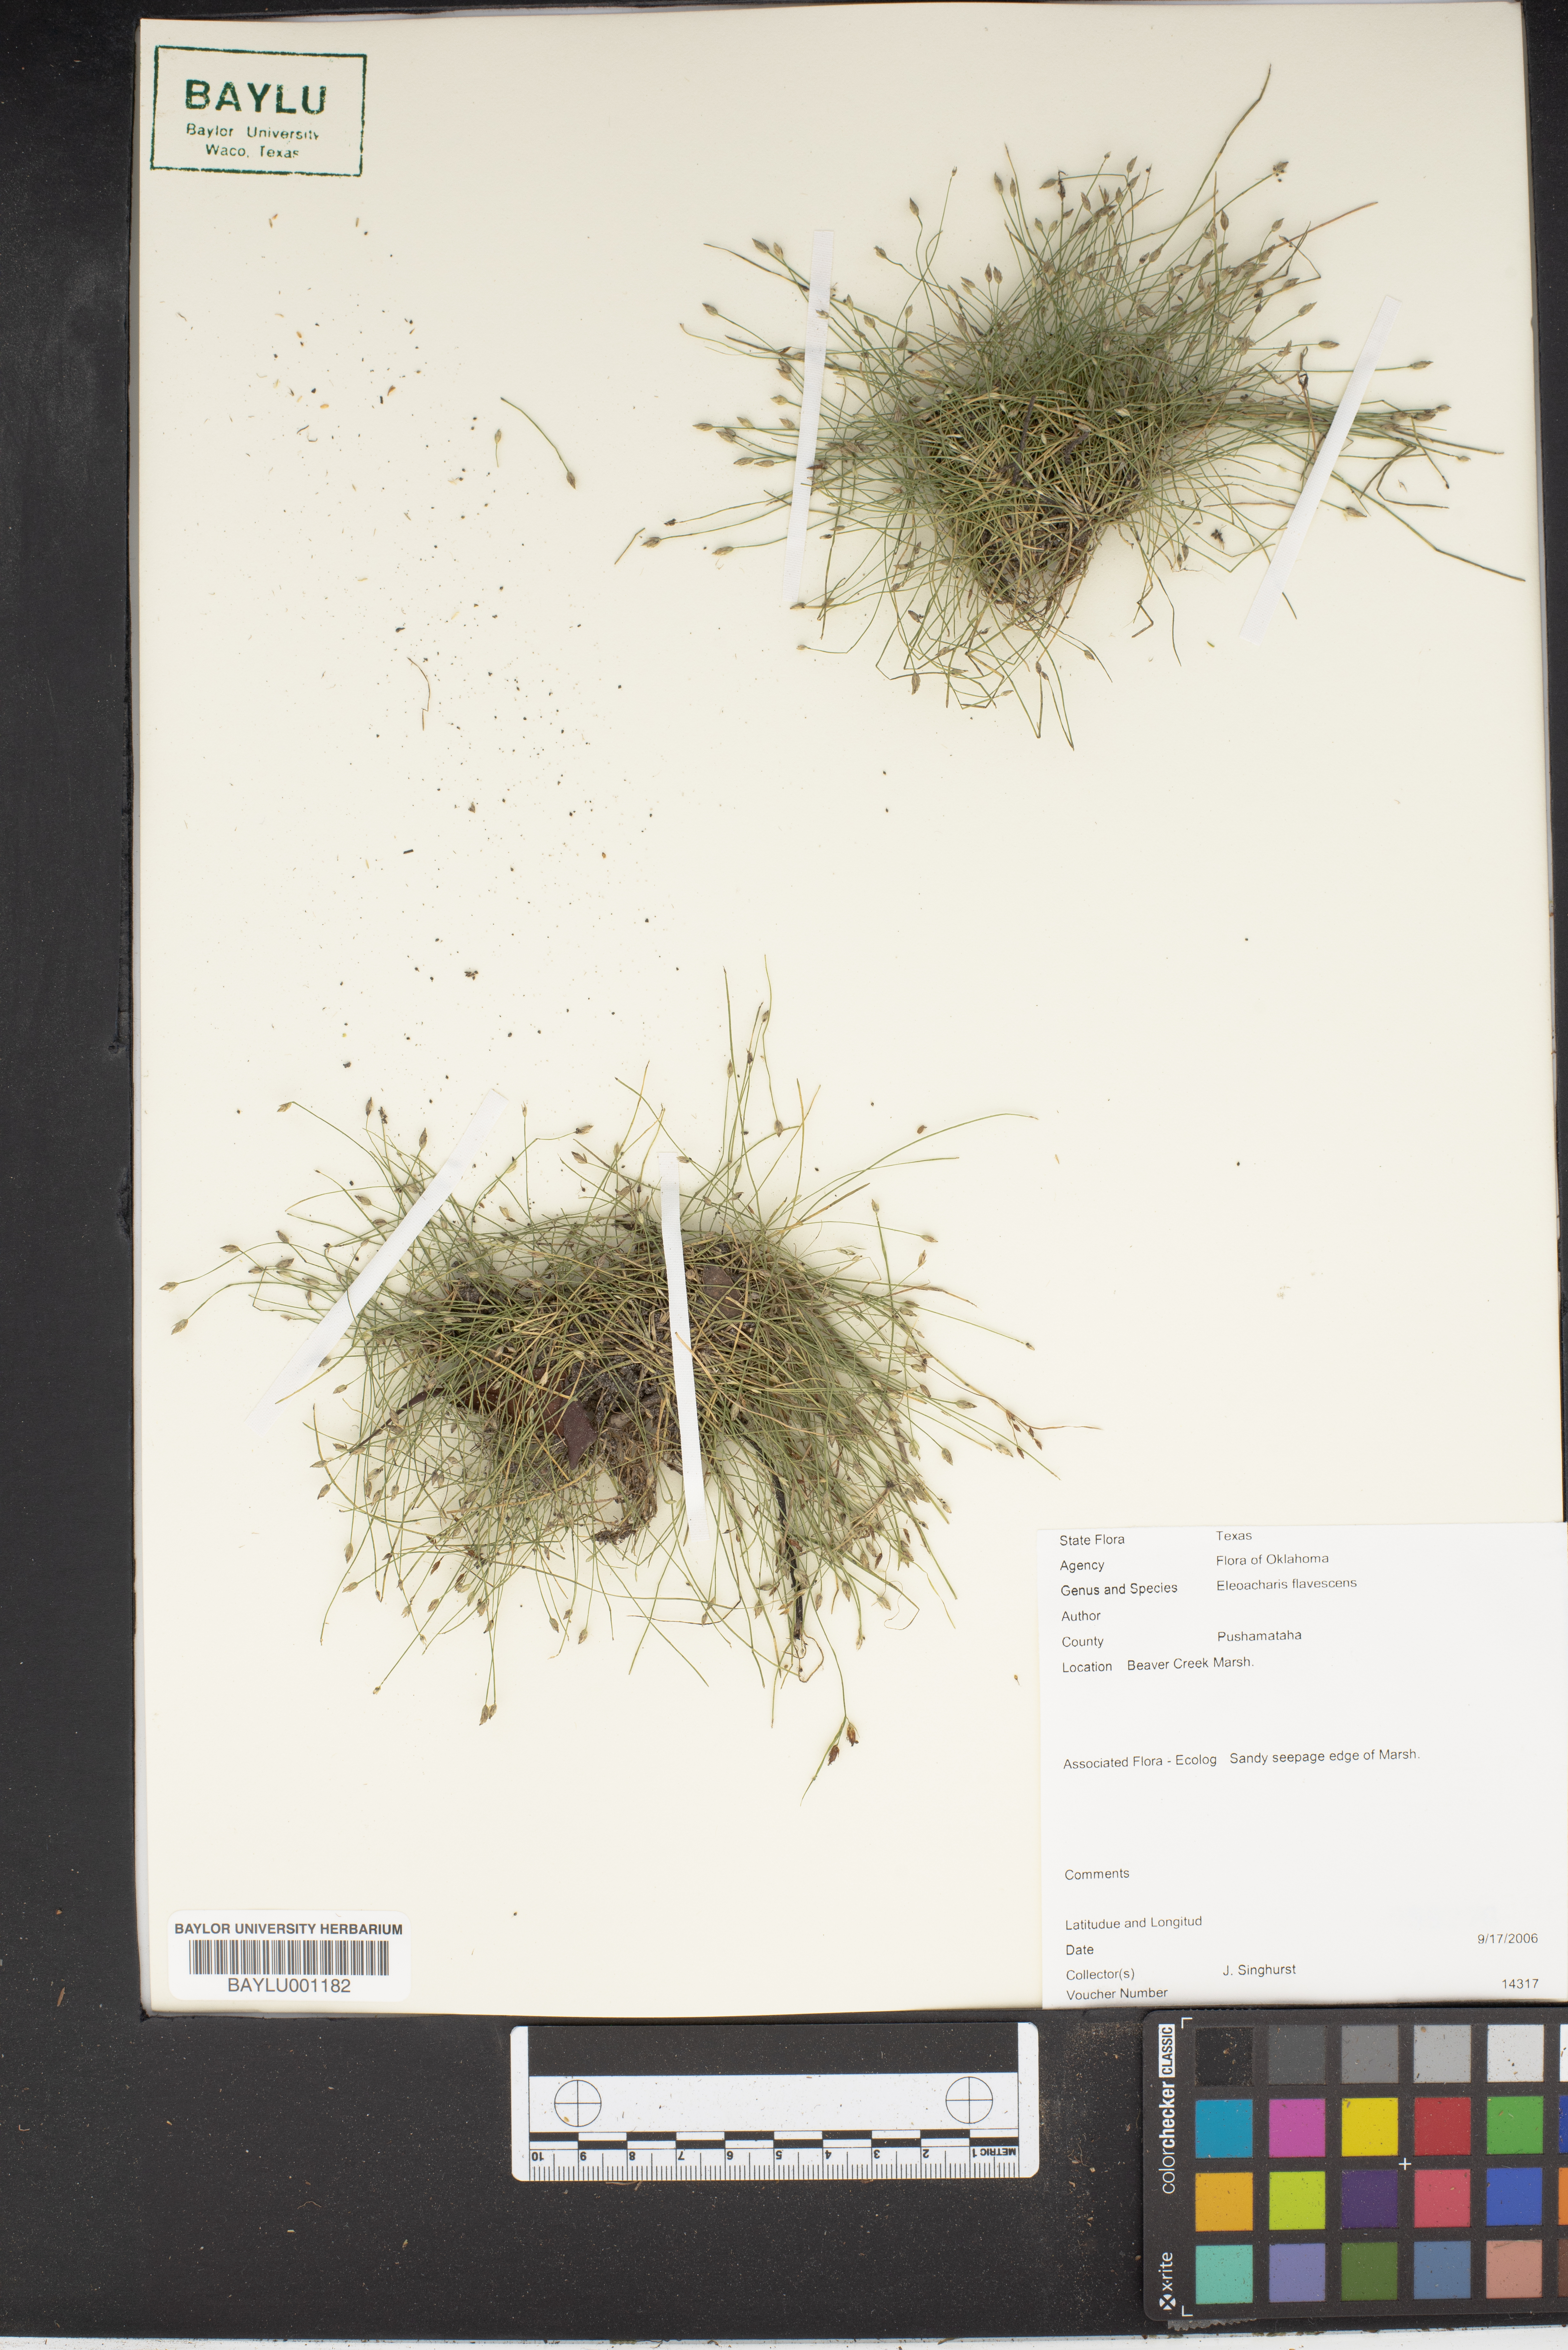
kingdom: Plantae
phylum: Tracheophyta
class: Liliopsida
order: Poales
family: Cyperaceae
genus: Eleocharis
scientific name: Eleocharis flavescens
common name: Yellow spikerush
